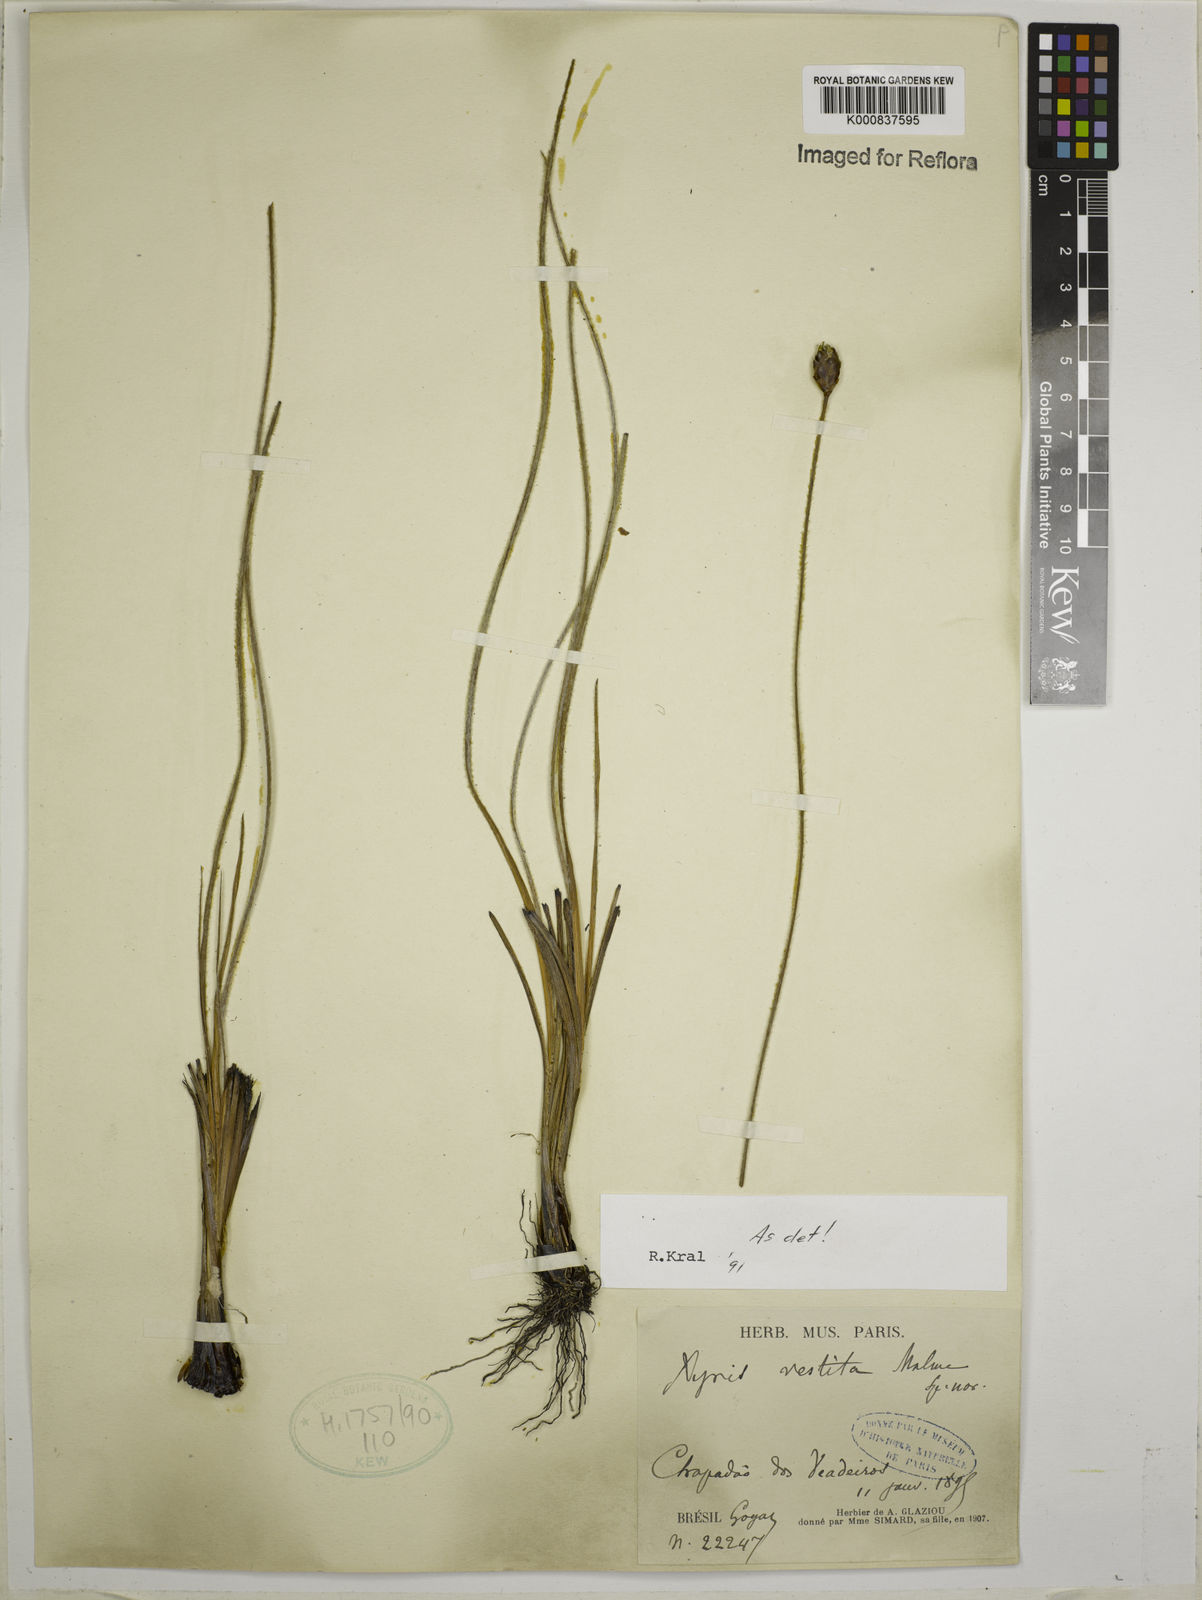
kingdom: Plantae
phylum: Tracheophyta
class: Liliopsida
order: Poales
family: Xyridaceae
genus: Xyris
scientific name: Xyris vestita
